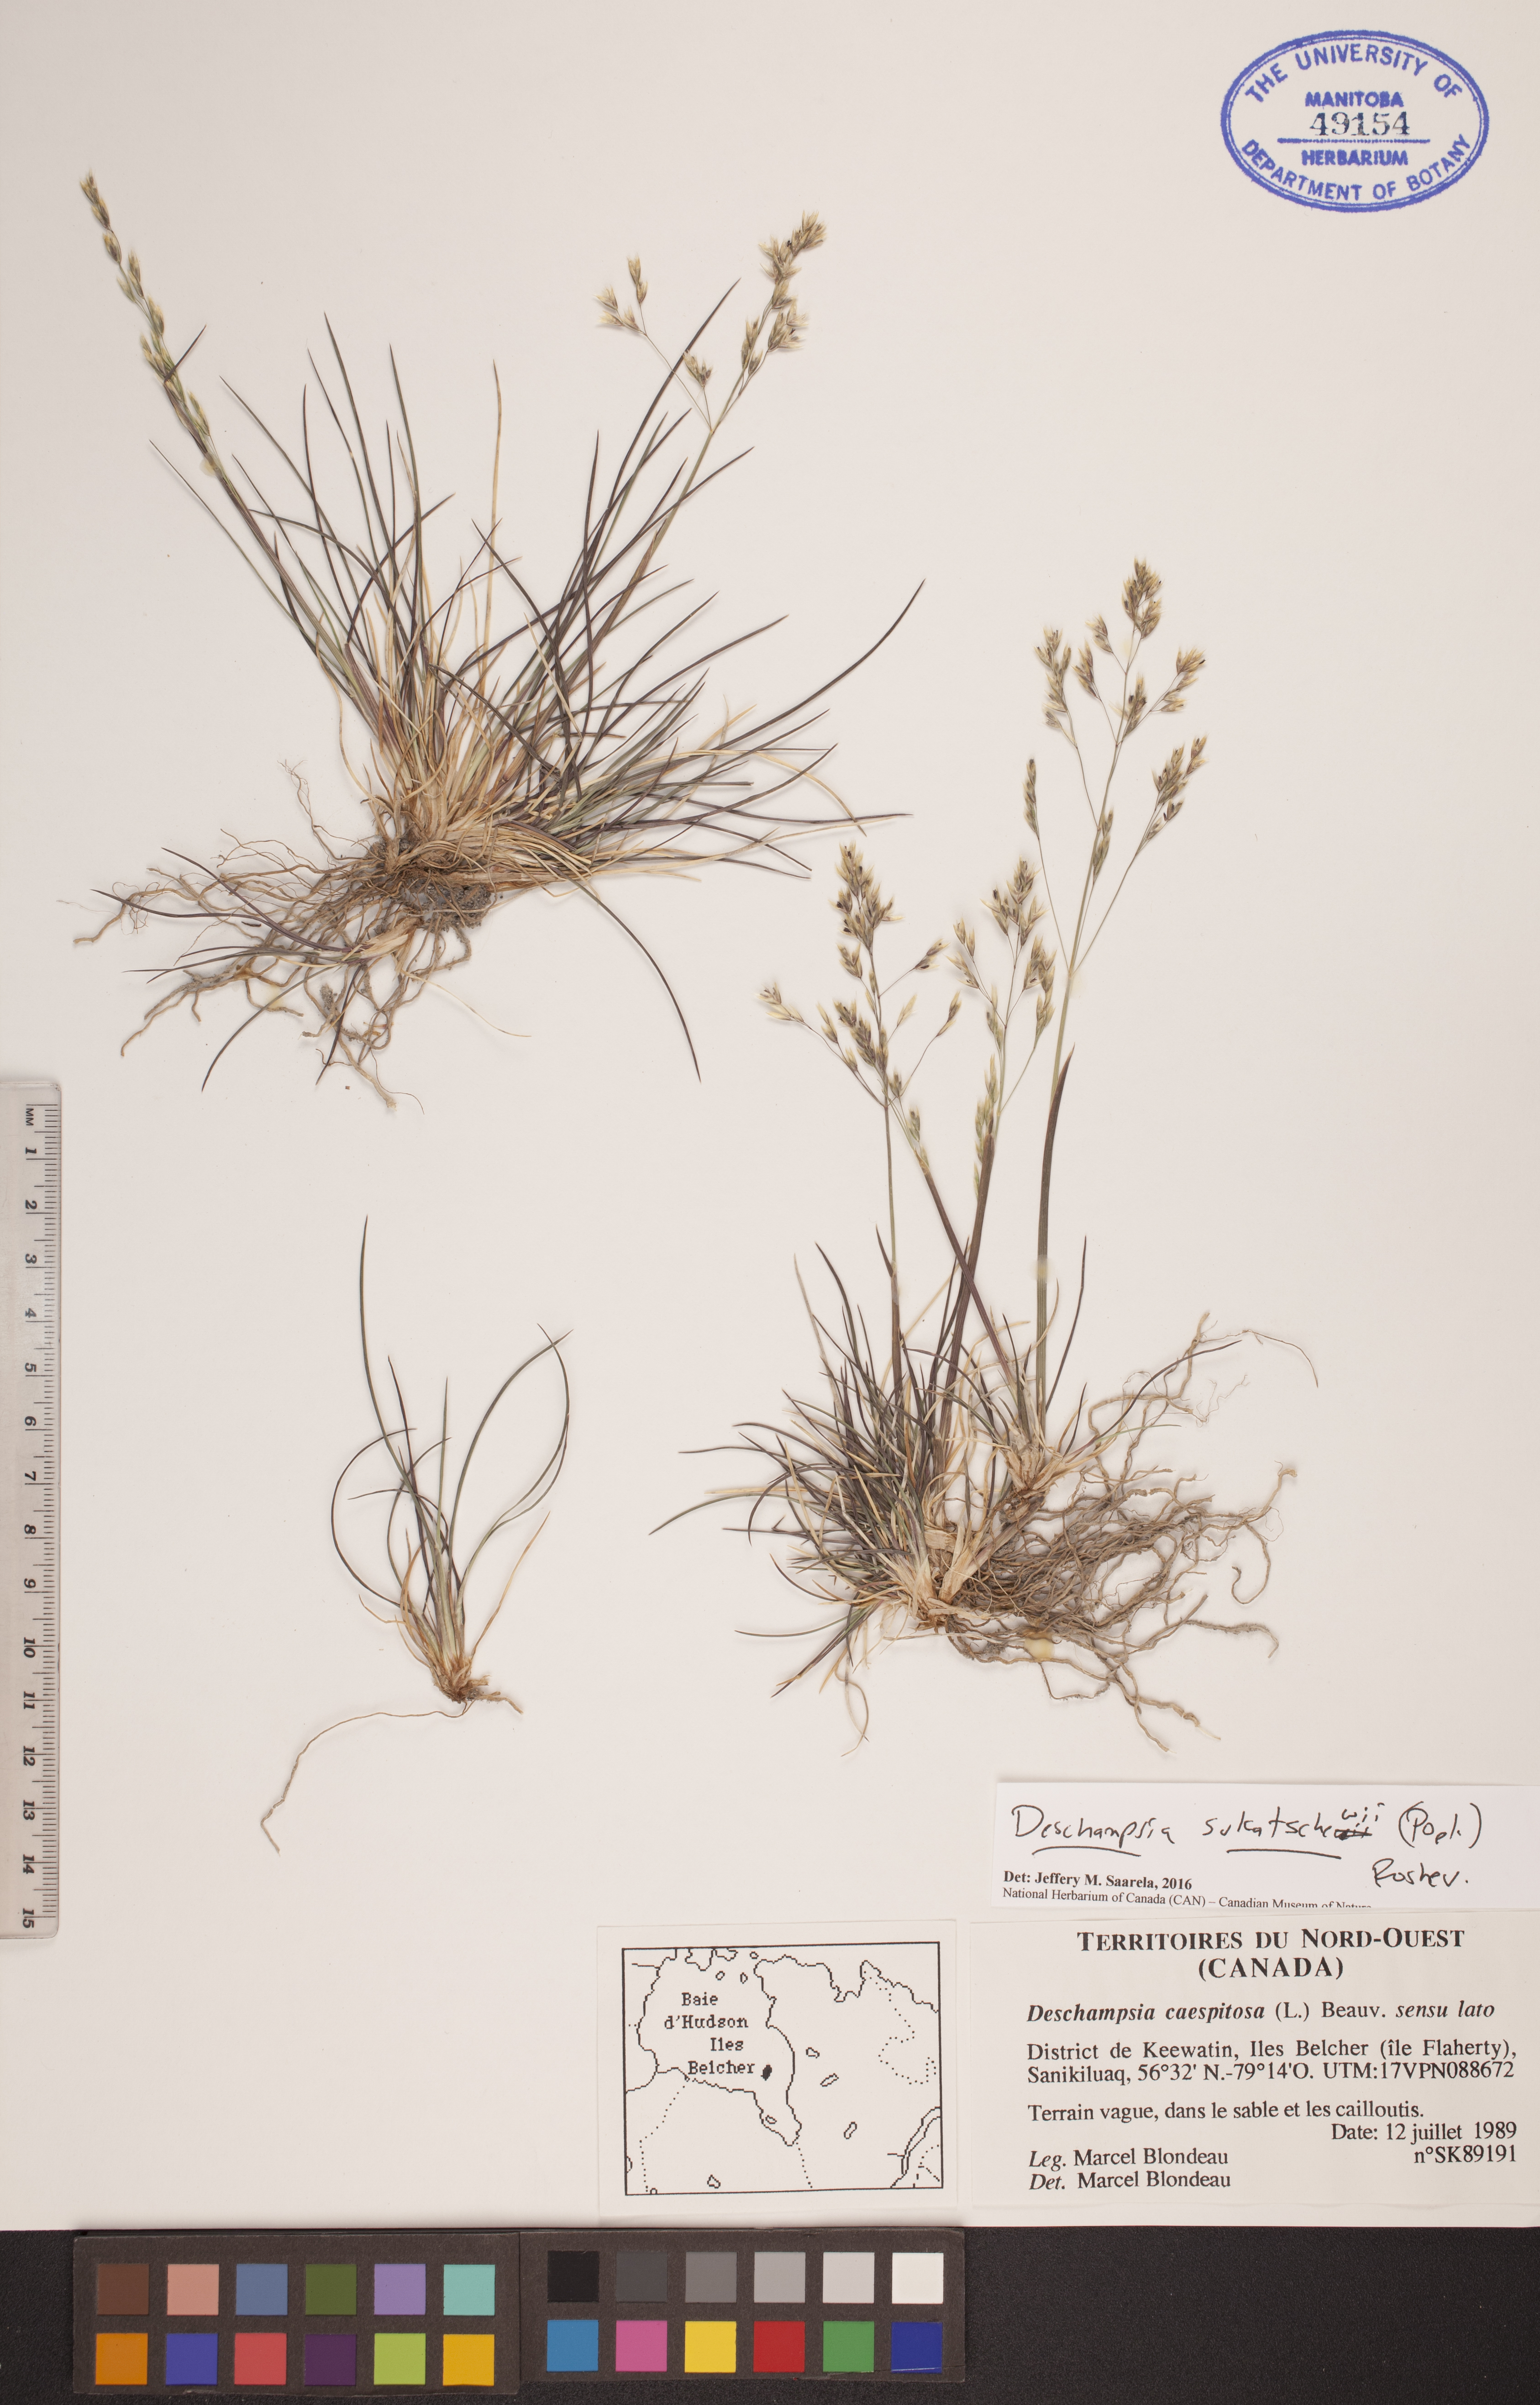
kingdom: Plantae
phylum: Tracheophyta
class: Liliopsida
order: Poales
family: Poaceae
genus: Deschampsia
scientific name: Deschampsia cespitosa
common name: Tufted hair-grass
